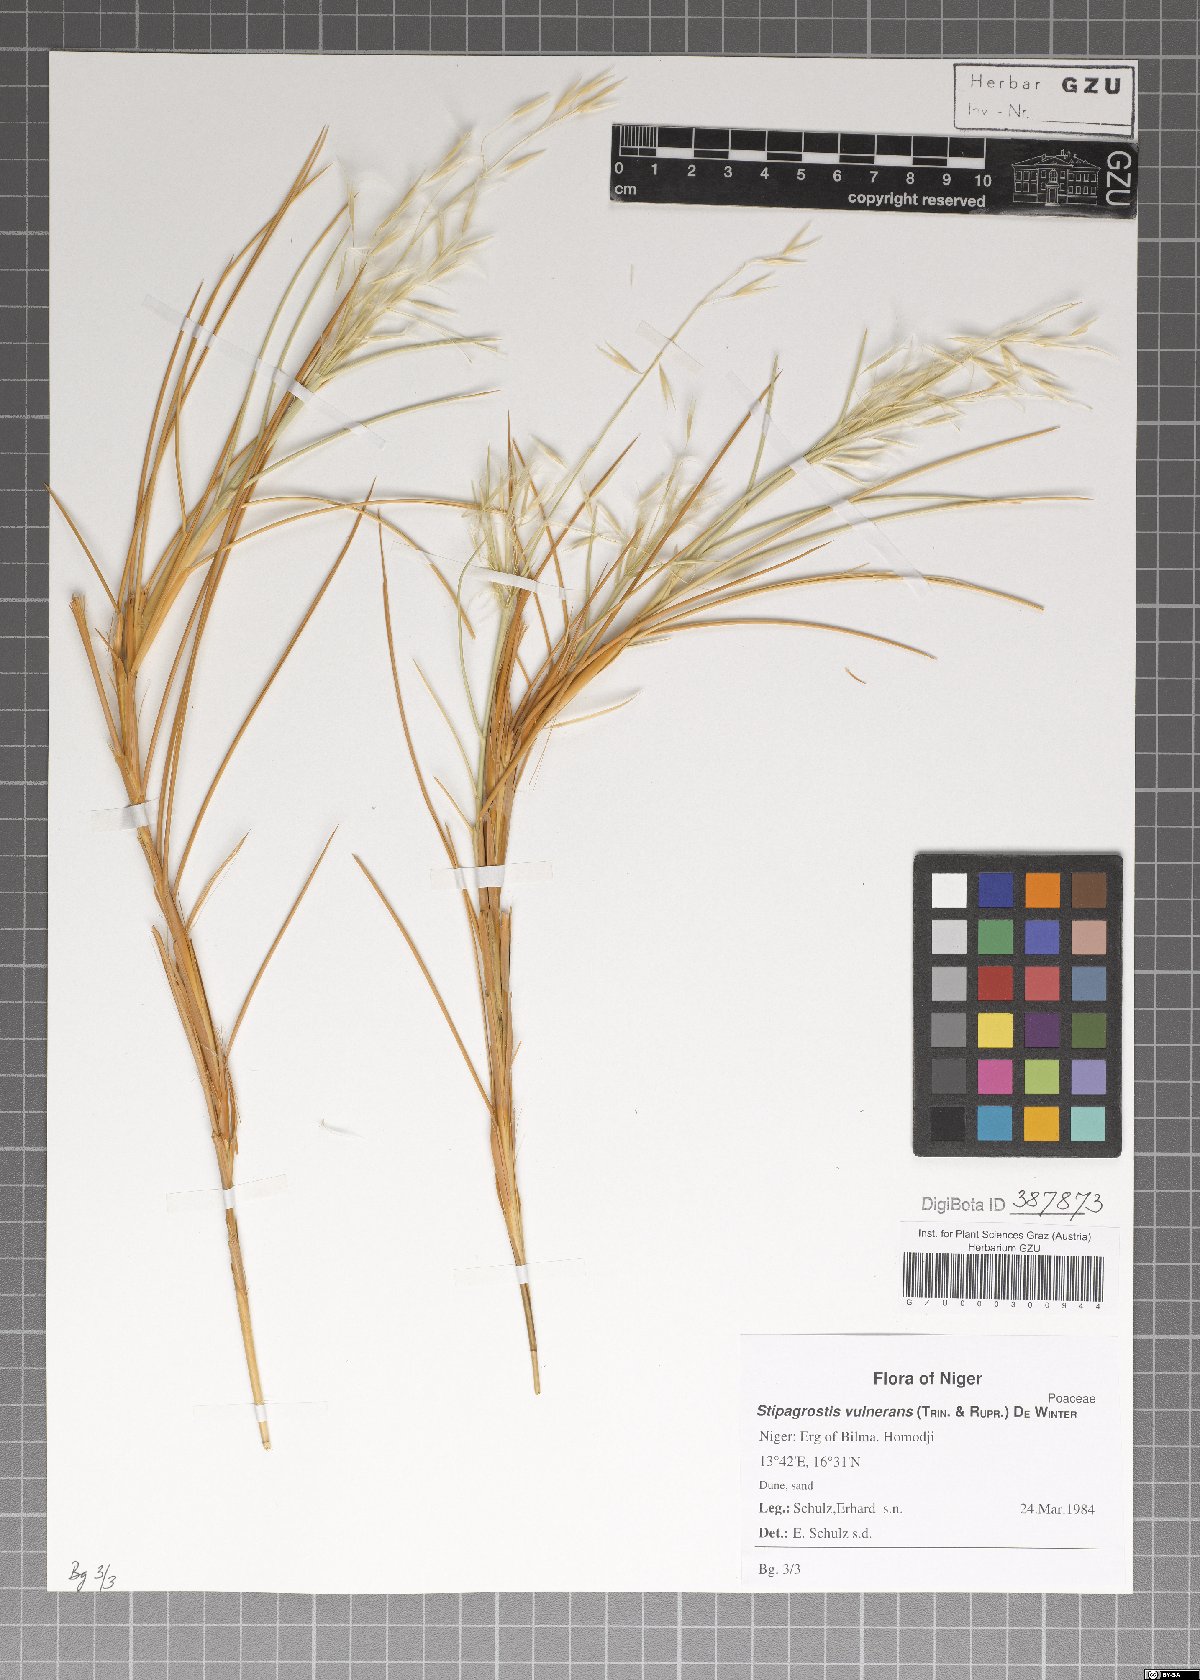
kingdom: Plantae
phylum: Tracheophyta
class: Liliopsida
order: Poales
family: Poaceae
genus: Stipagrostis
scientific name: Stipagrostis vulnerans
